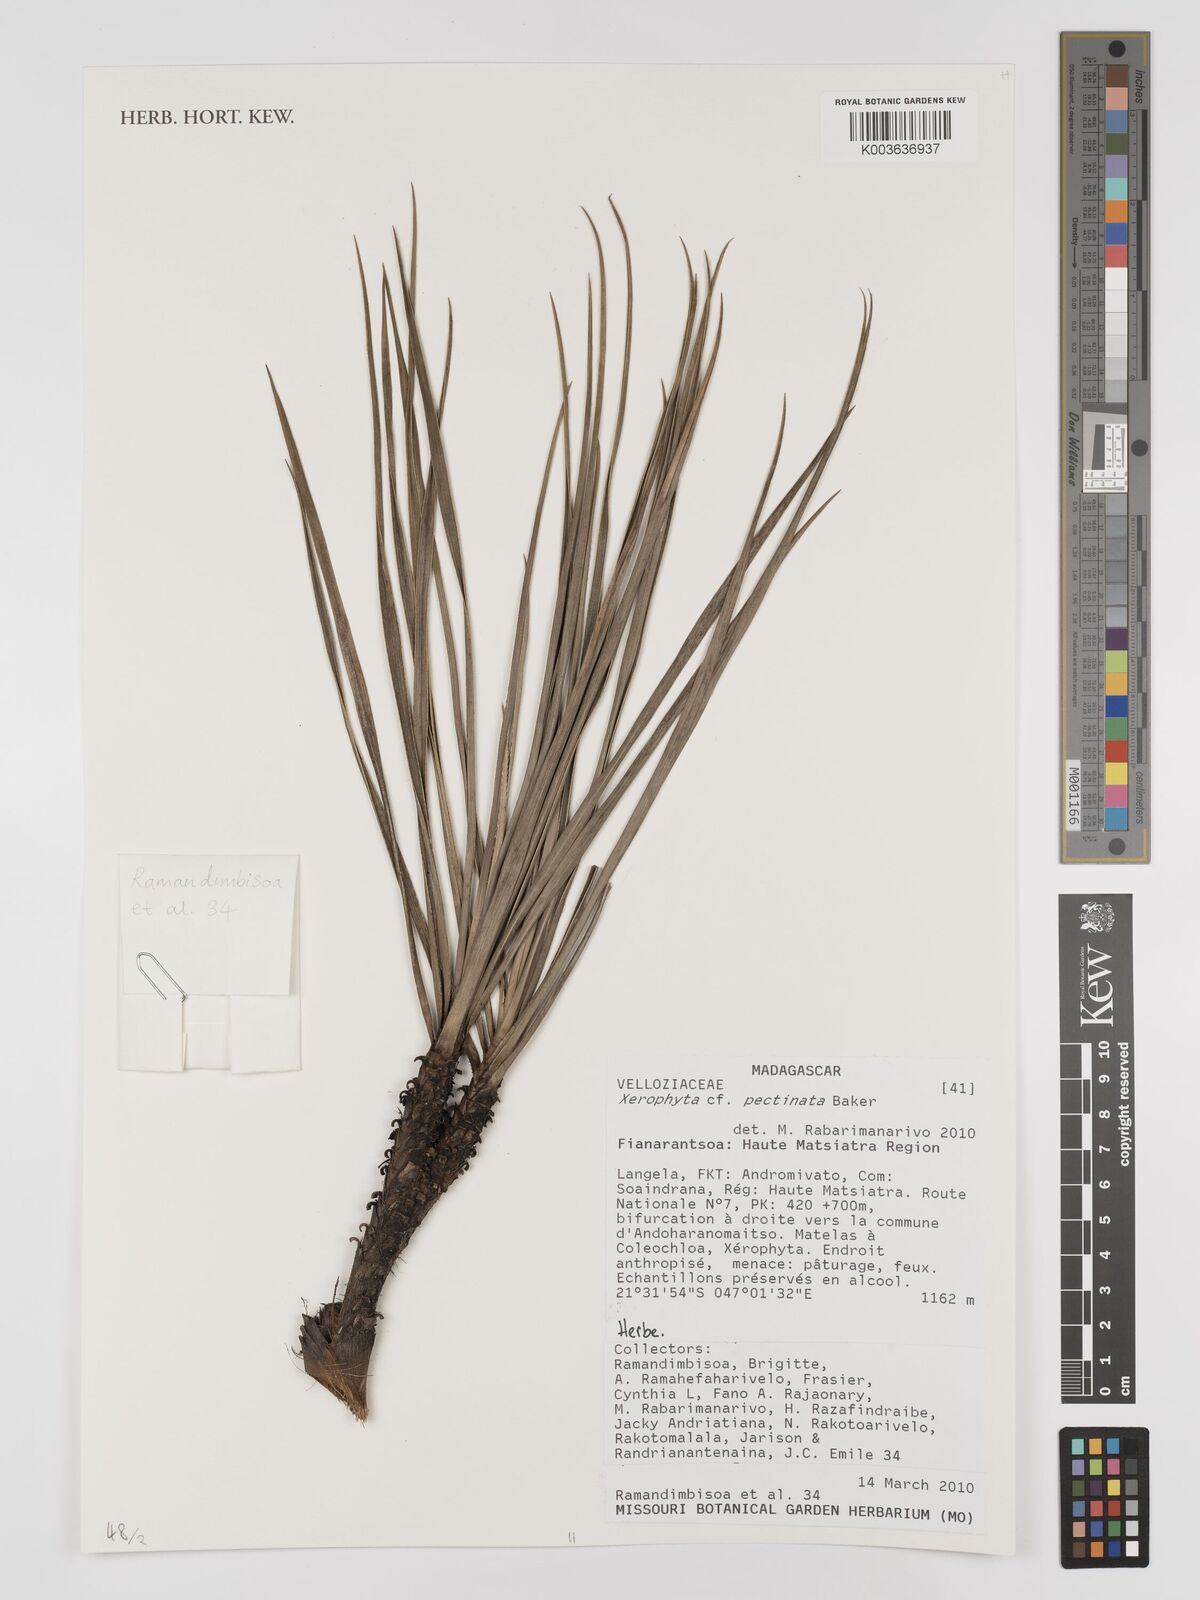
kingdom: Plantae
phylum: Tracheophyta
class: Liliopsida
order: Pandanales
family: Velloziaceae
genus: Xerophyta
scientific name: Xerophyta pectinata
